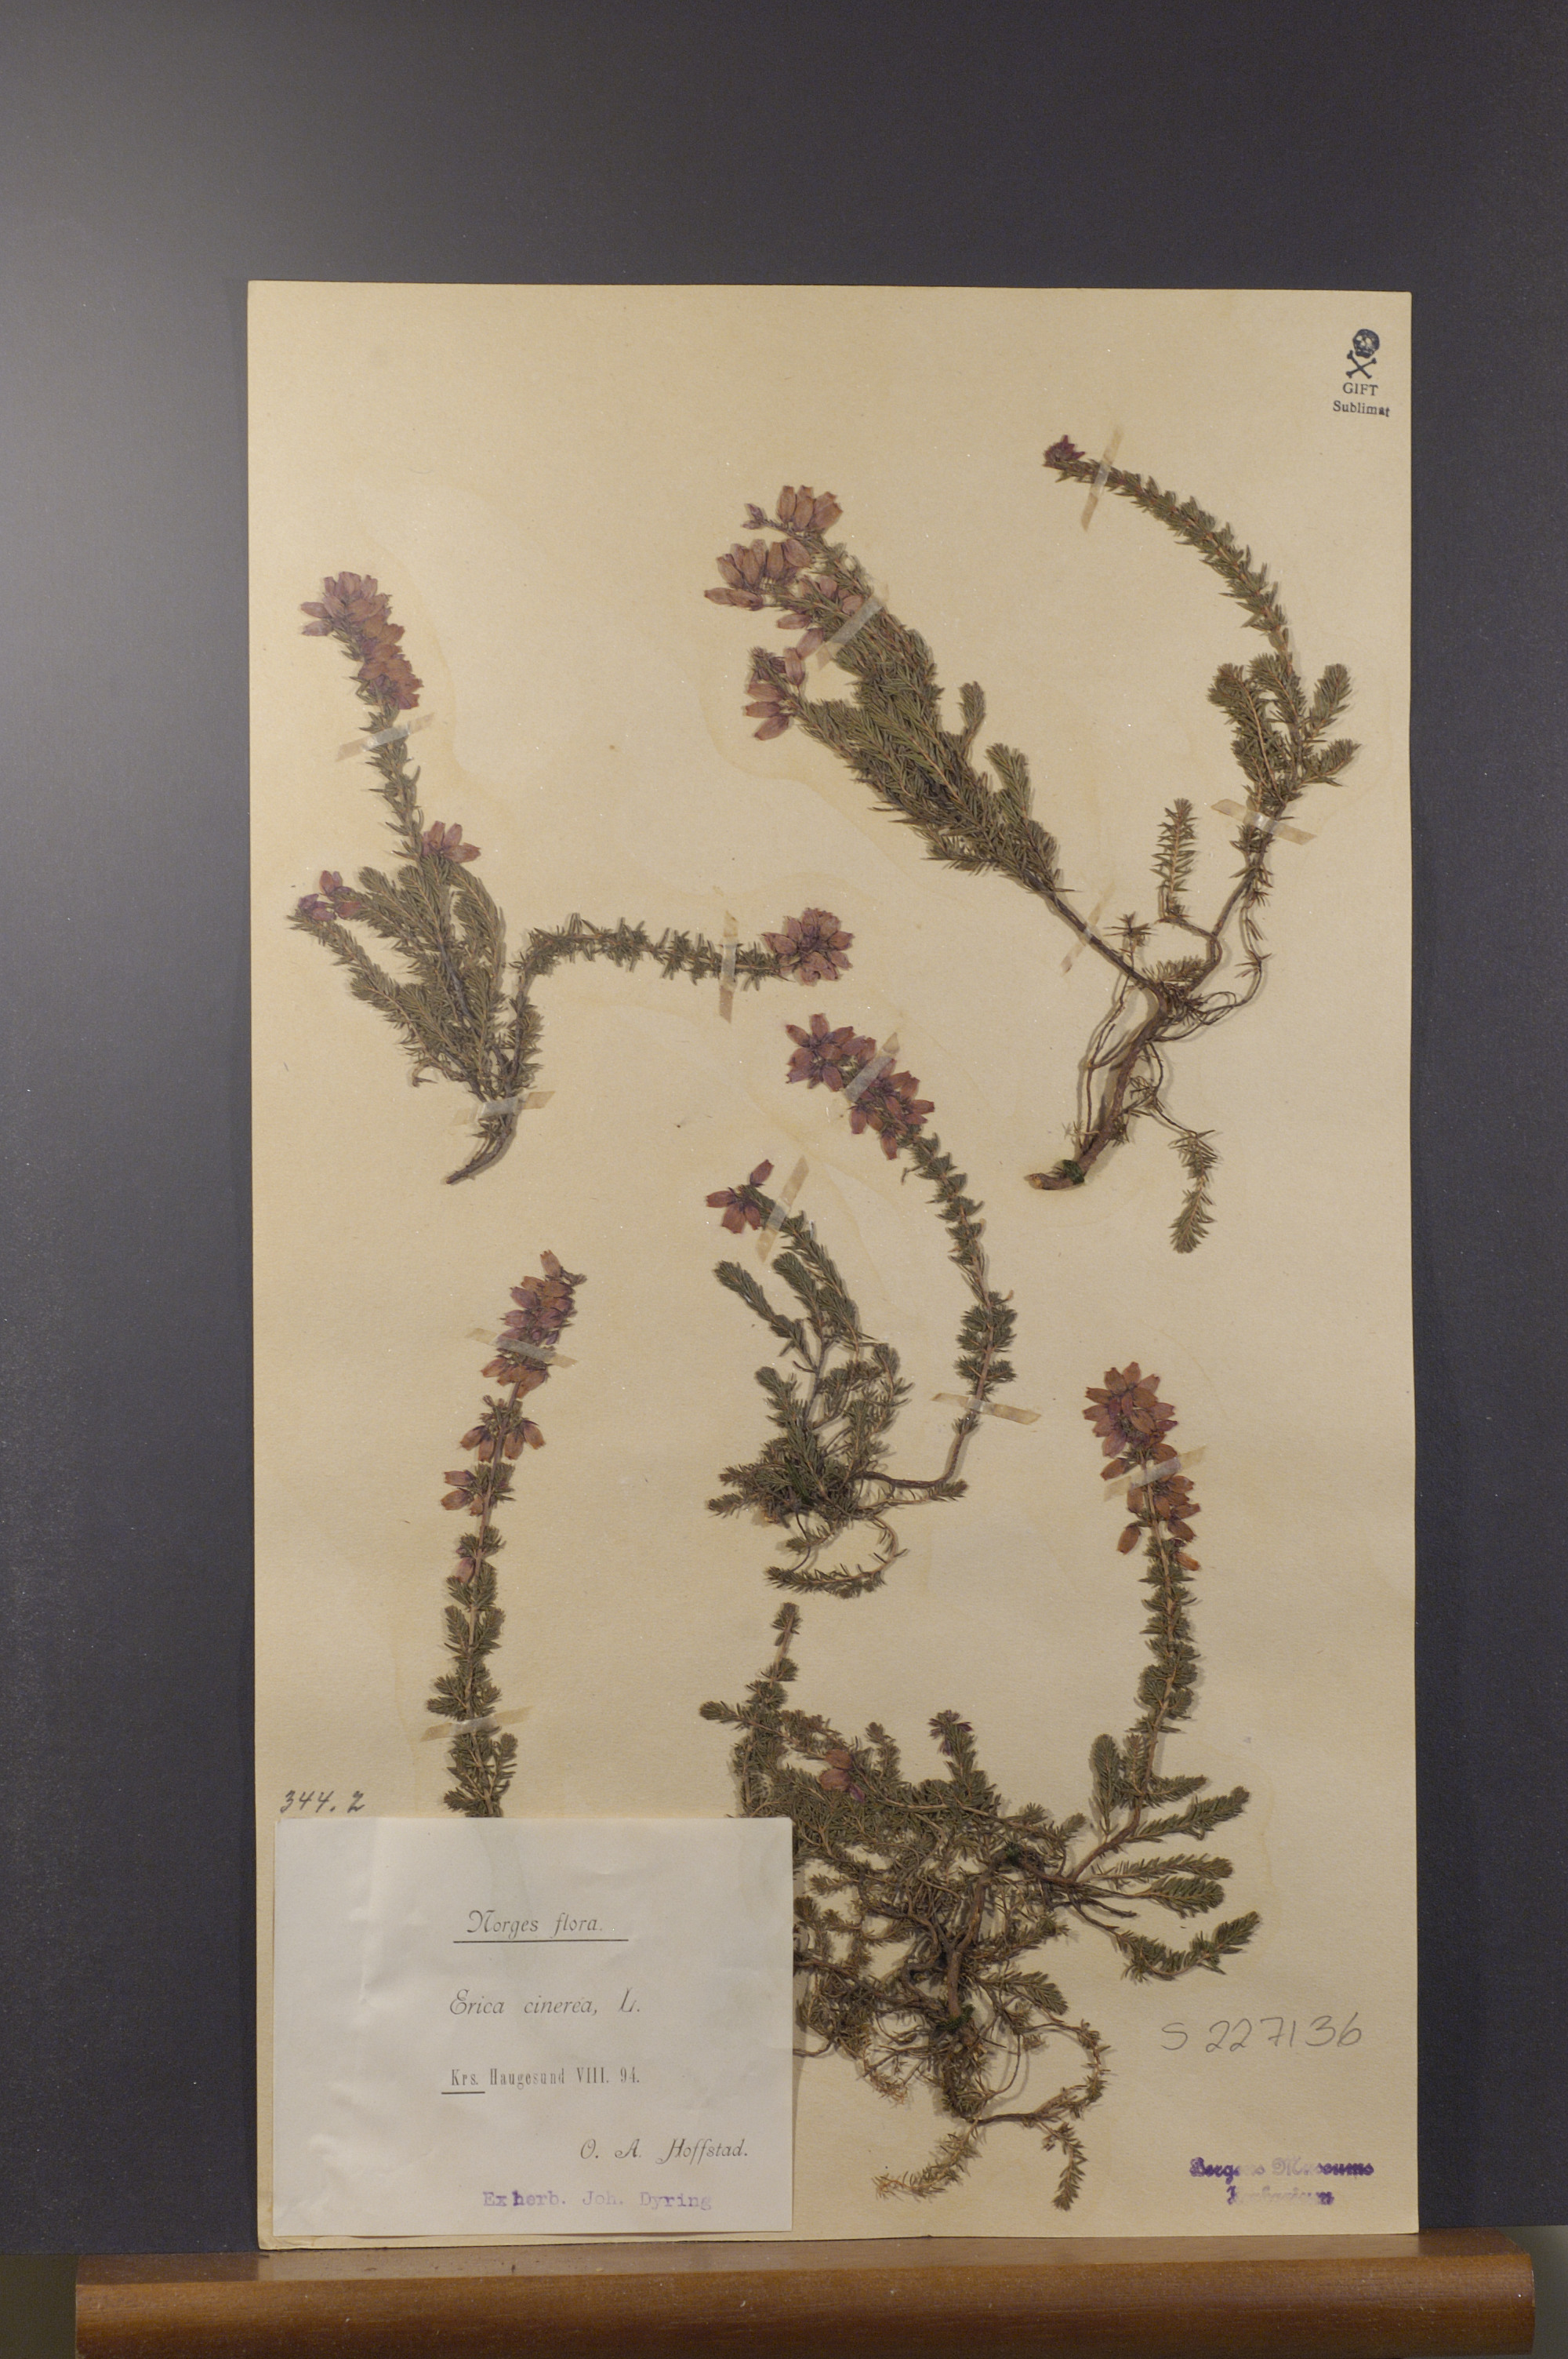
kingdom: Plantae
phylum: Tracheophyta
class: Magnoliopsida
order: Ericales
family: Ericaceae
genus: Erica
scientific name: Erica cinerea
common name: Bell heather
